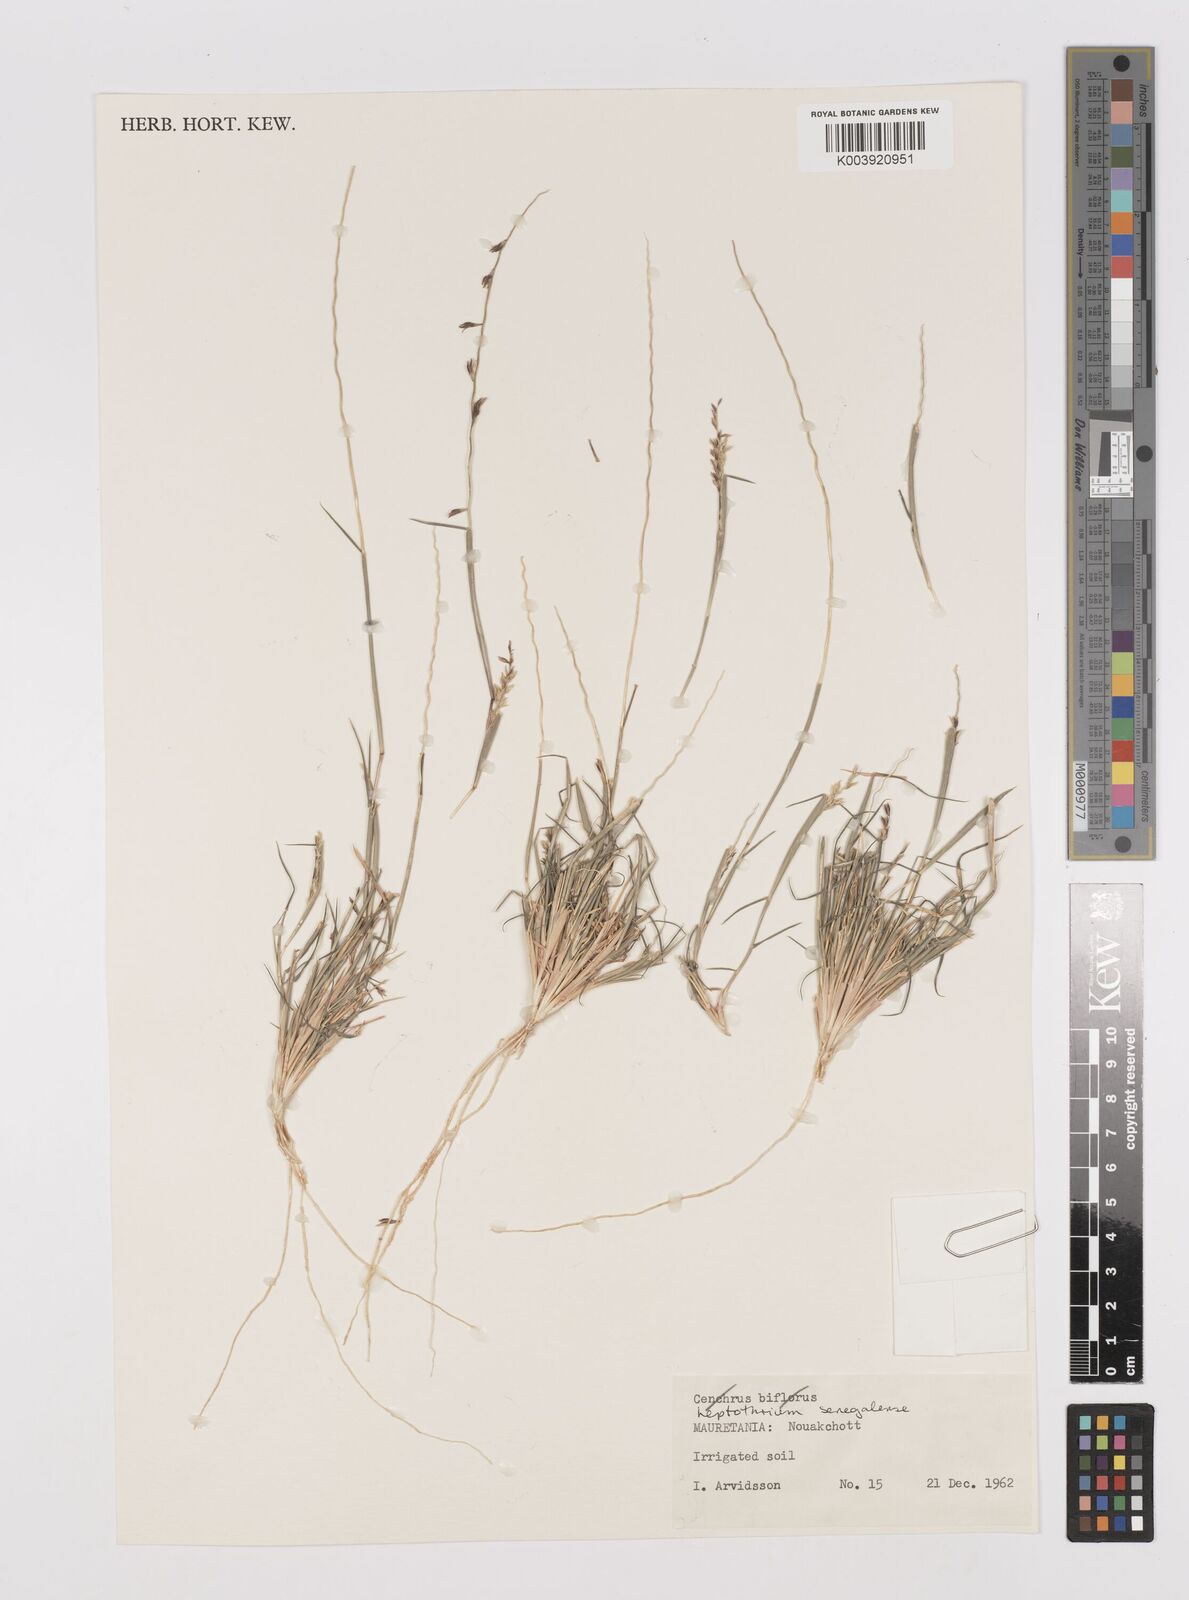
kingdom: Plantae
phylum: Tracheophyta
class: Liliopsida
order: Poales
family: Poaceae
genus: Leptothrium
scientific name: Leptothrium senegalense
